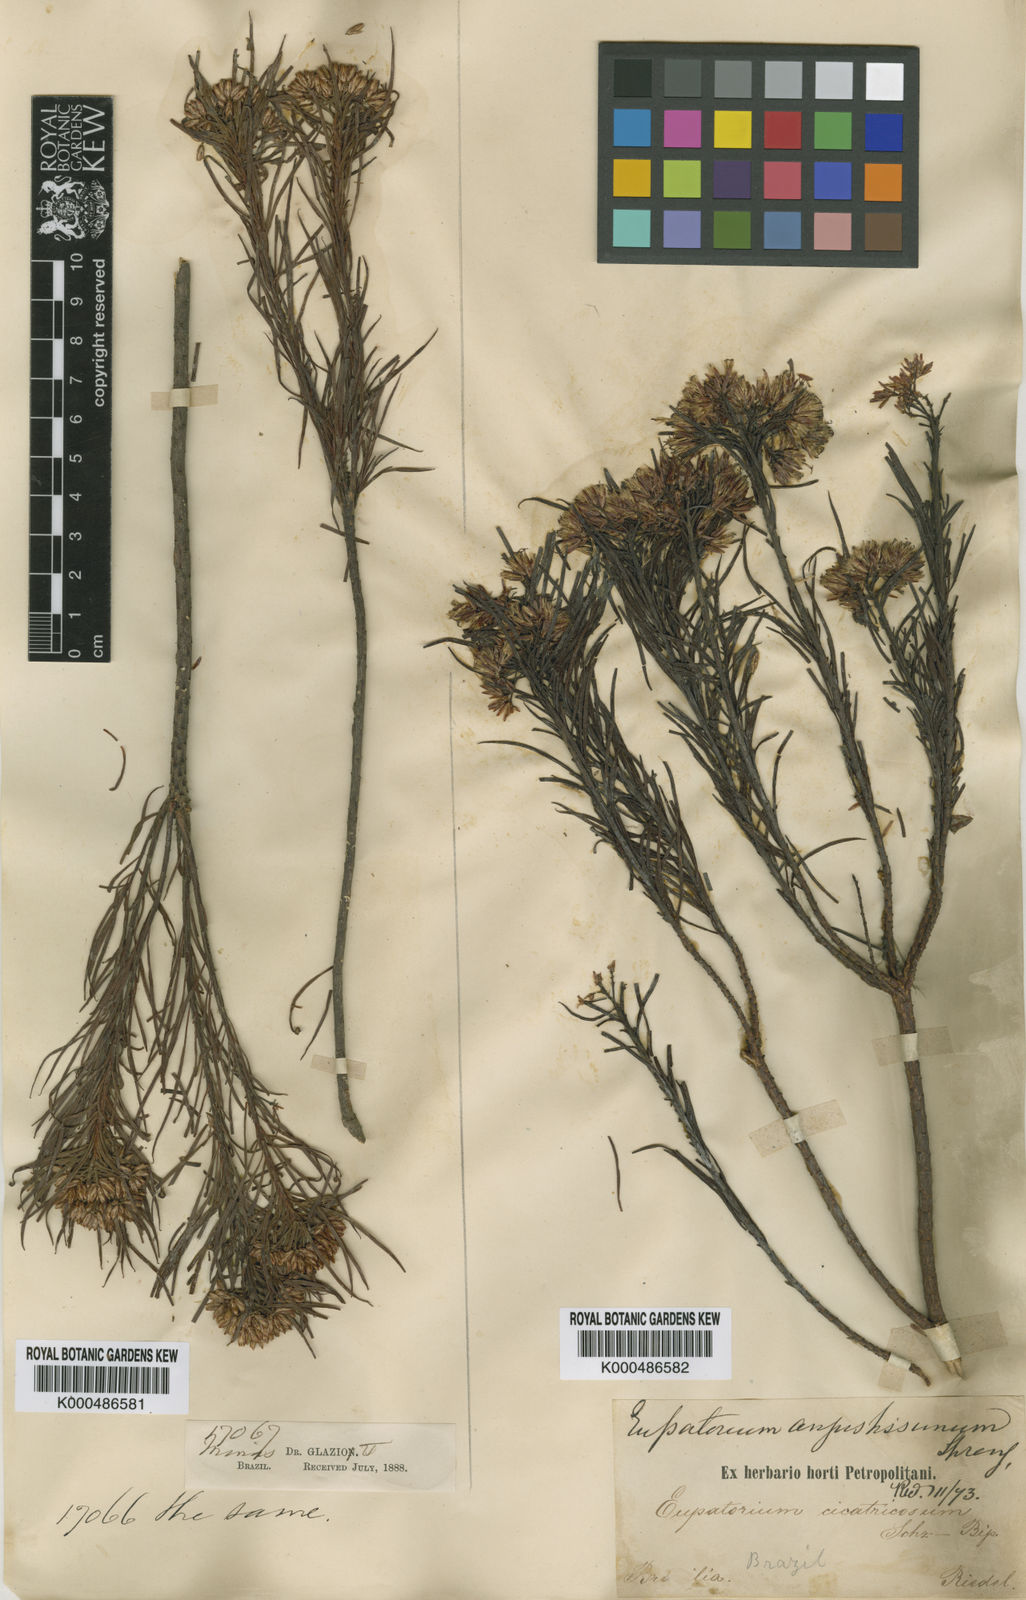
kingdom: Plantae
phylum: Tracheophyta
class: Magnoliopsida
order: Asterales
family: Asteraceae
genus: Pseudobrickellia
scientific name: Pseudobrickellia angustissima
